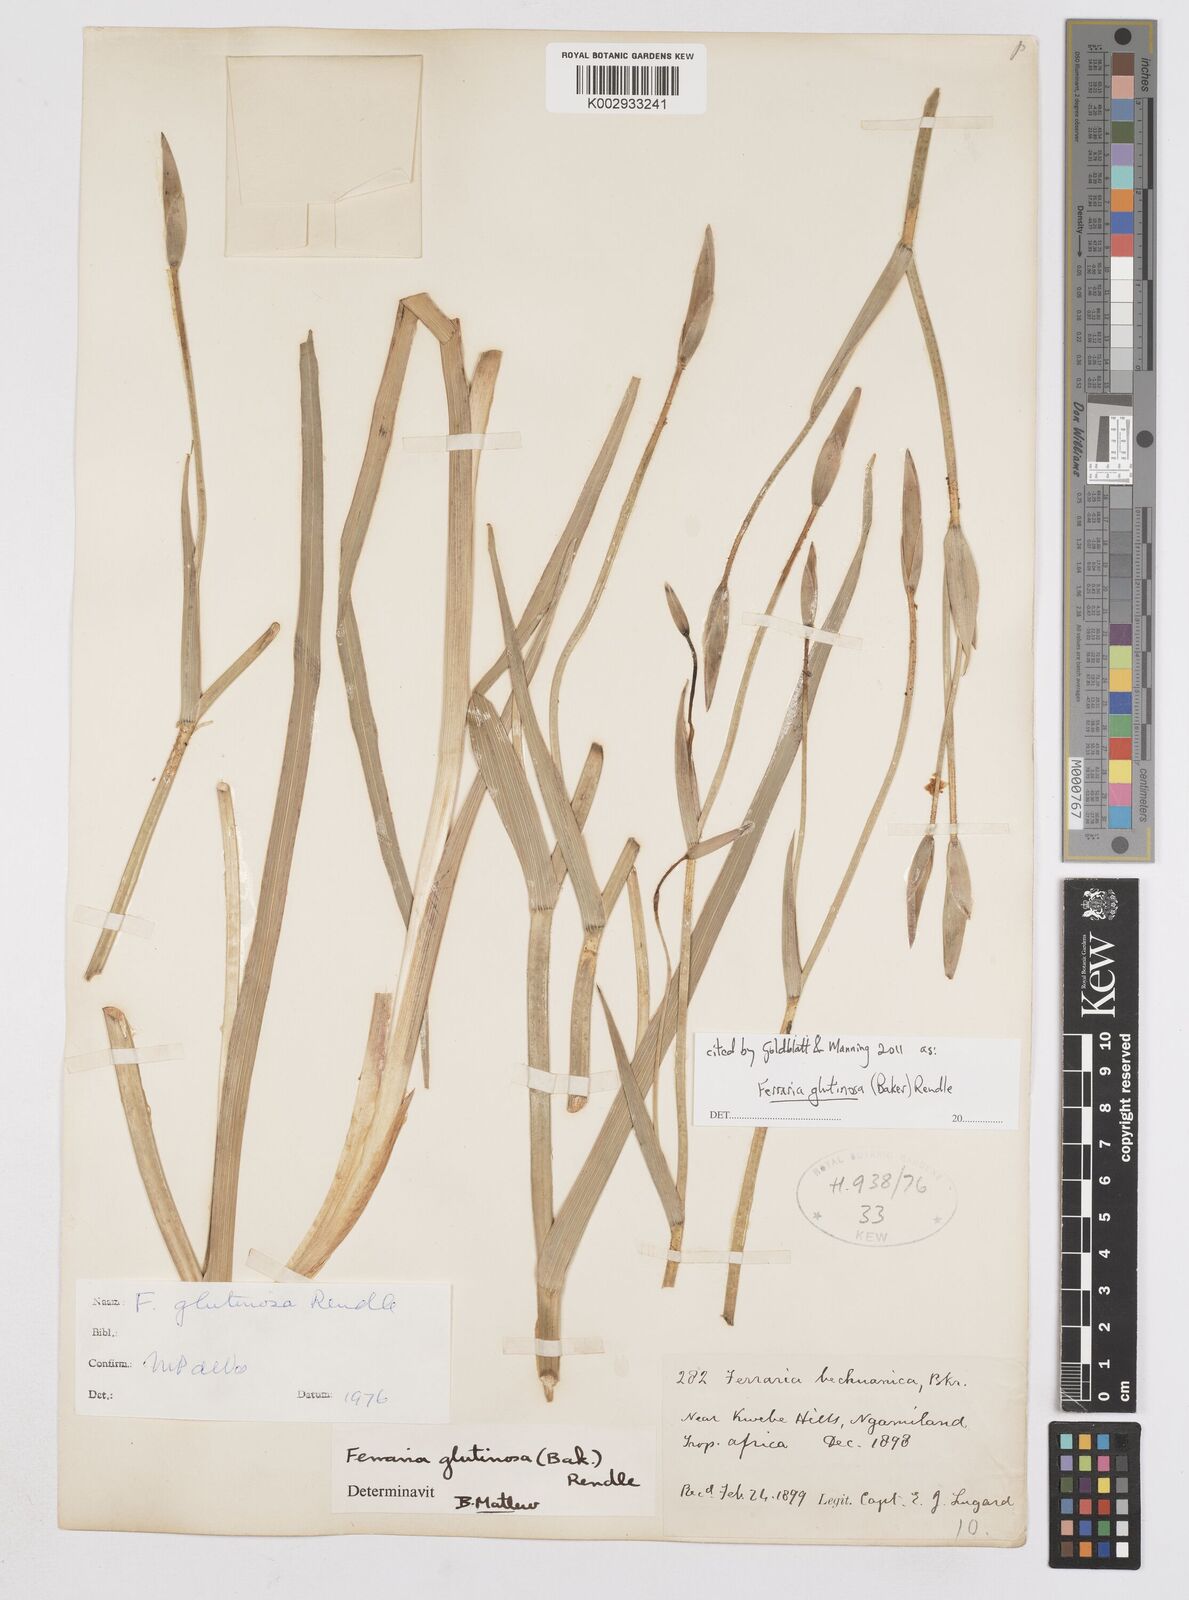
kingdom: Plantae
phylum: Tracheophyta
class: Liliopsida
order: Asparagales
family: Iridaceae
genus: Ferraria
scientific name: Ferraria glutinosa
